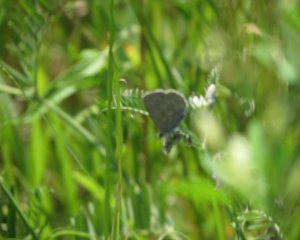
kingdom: Animalia
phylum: Arthropoda
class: Insecta
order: Lepidoptera
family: Lycaenidae
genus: Glaucopsyche
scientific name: Glaucopsyche lygdamus
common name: Silvery Blue
